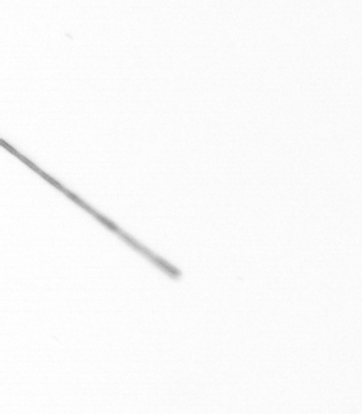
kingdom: Chromista
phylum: Ochrophyta
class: Bacillariophyceae
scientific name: Bacillariophyceae
